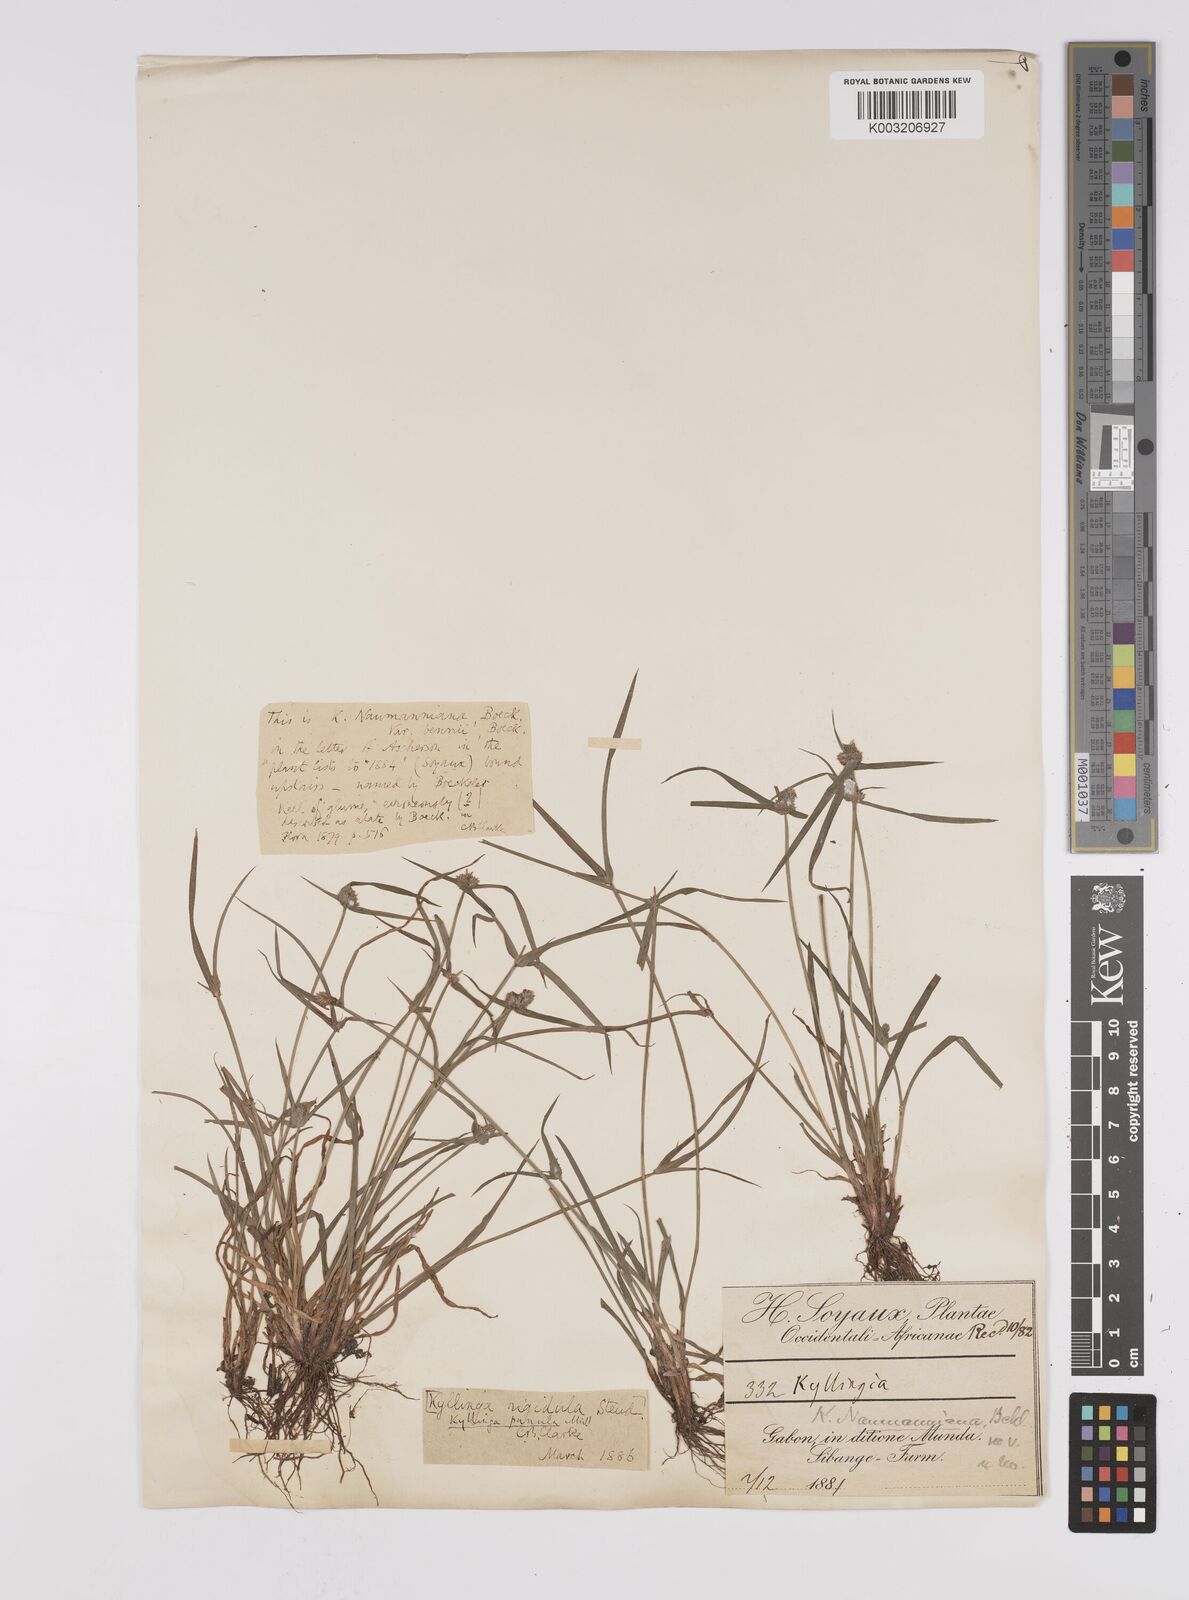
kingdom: Plantae
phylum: Tracheophyta
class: Liliopsida
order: Poales
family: Cyperaceae
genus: Cyperus
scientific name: Cyperus hortensis
